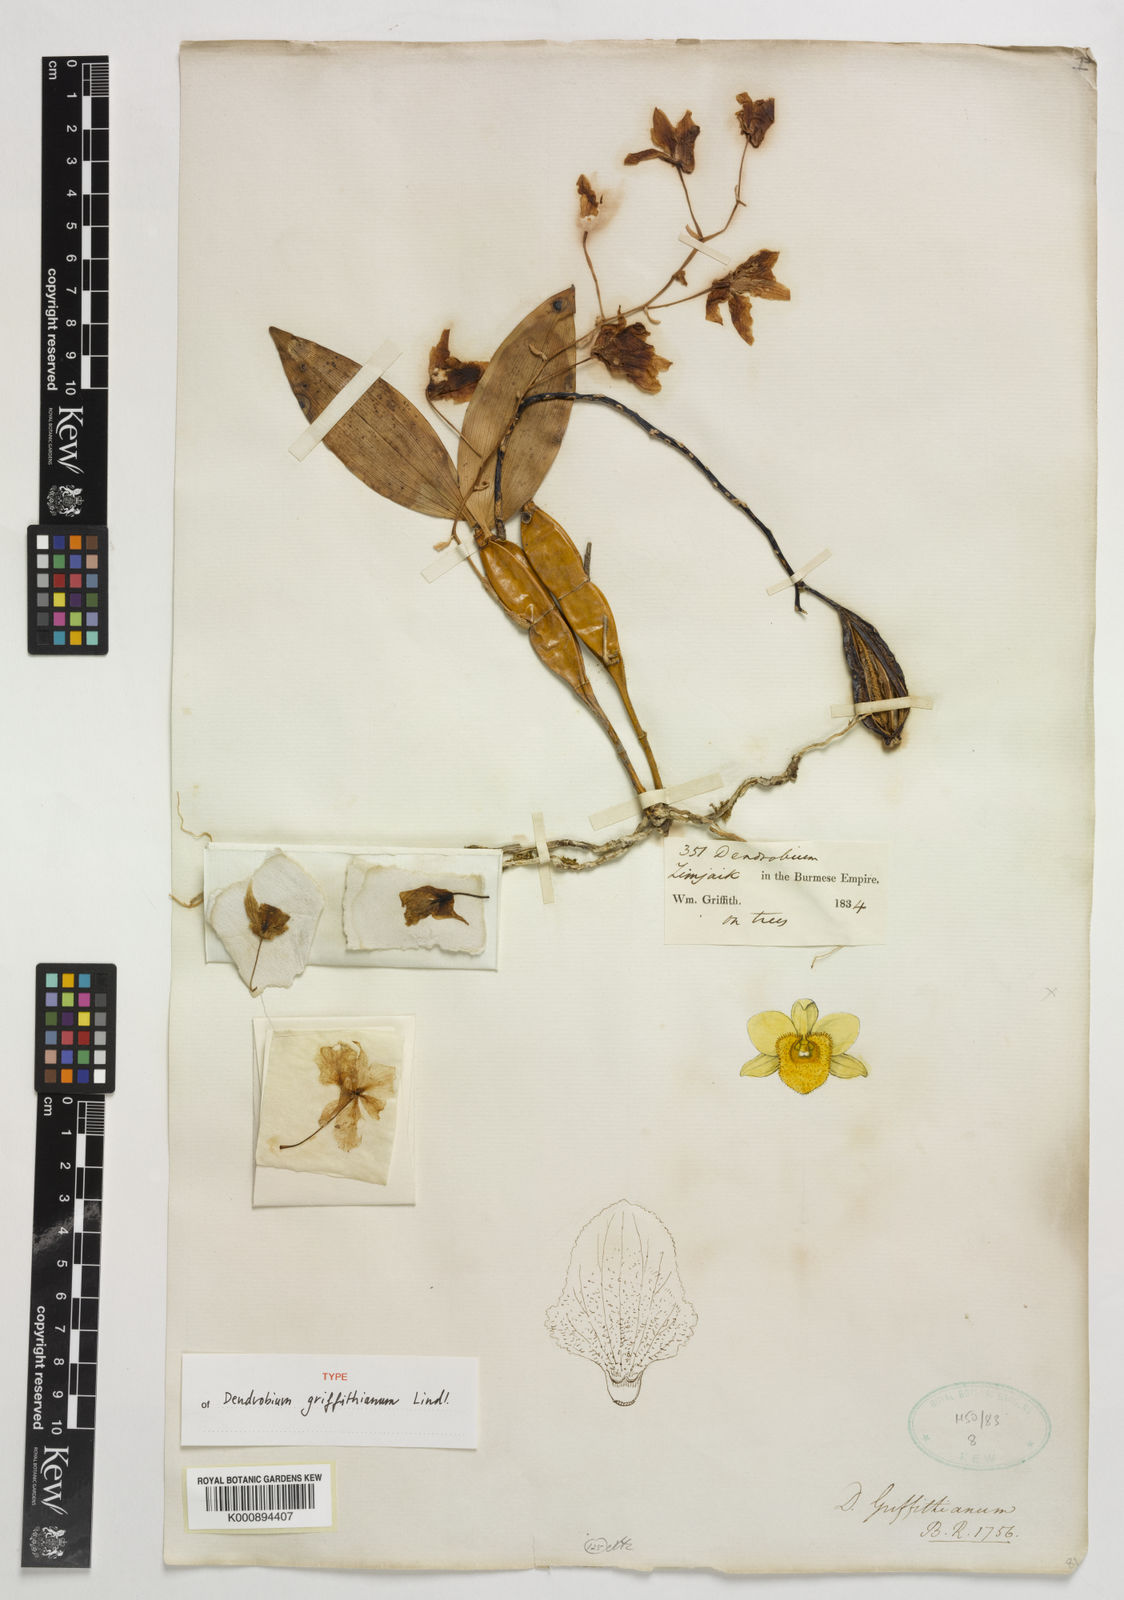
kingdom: Plantae
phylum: Tracheophyta
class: Liliopsida
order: Asparagales
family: Orchidaceae
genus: Dendrobium
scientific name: Dendrobium griffithianum
